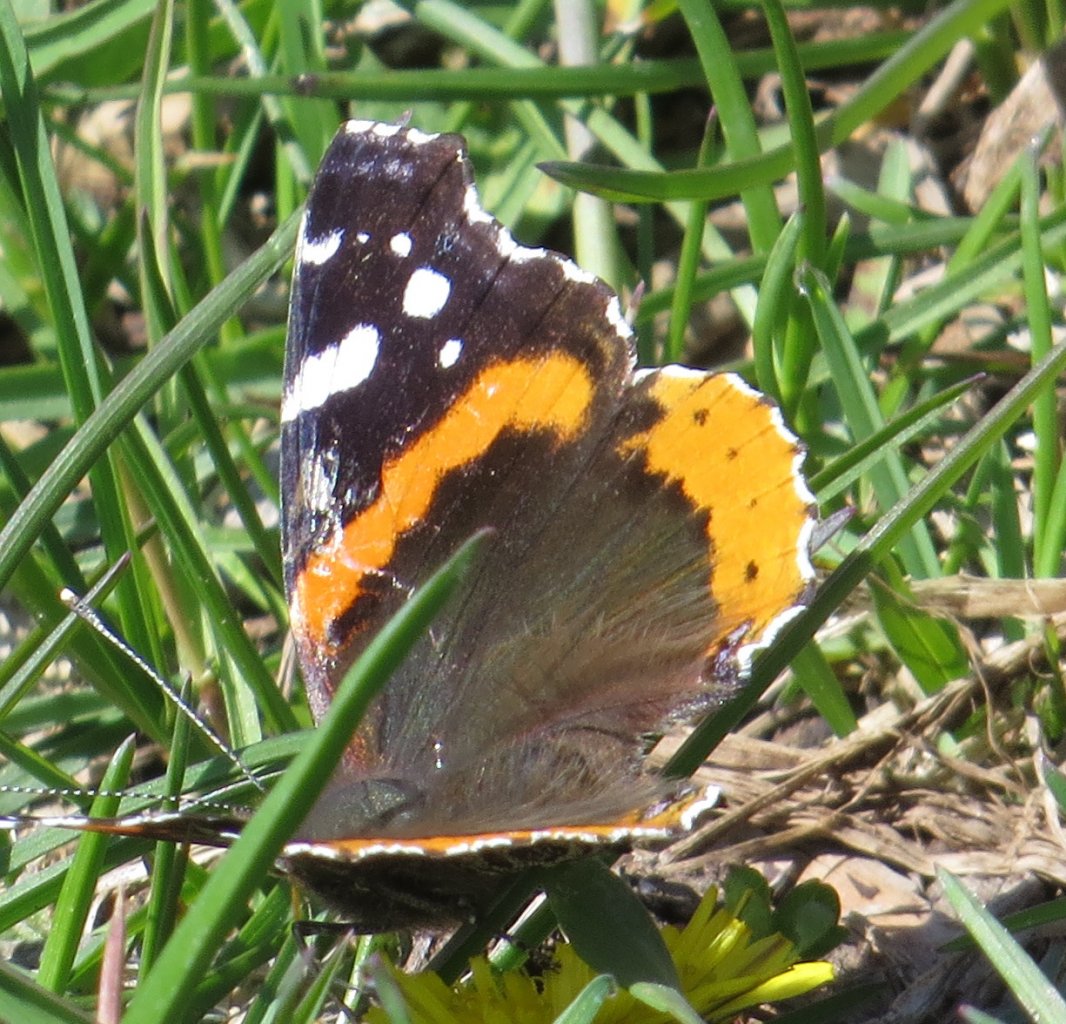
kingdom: Animalia
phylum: Arthropoda
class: Insecta
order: Lepidoptera
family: Nymphalidae
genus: Vanessa
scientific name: Vanessa atalanta
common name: Red Admiral
